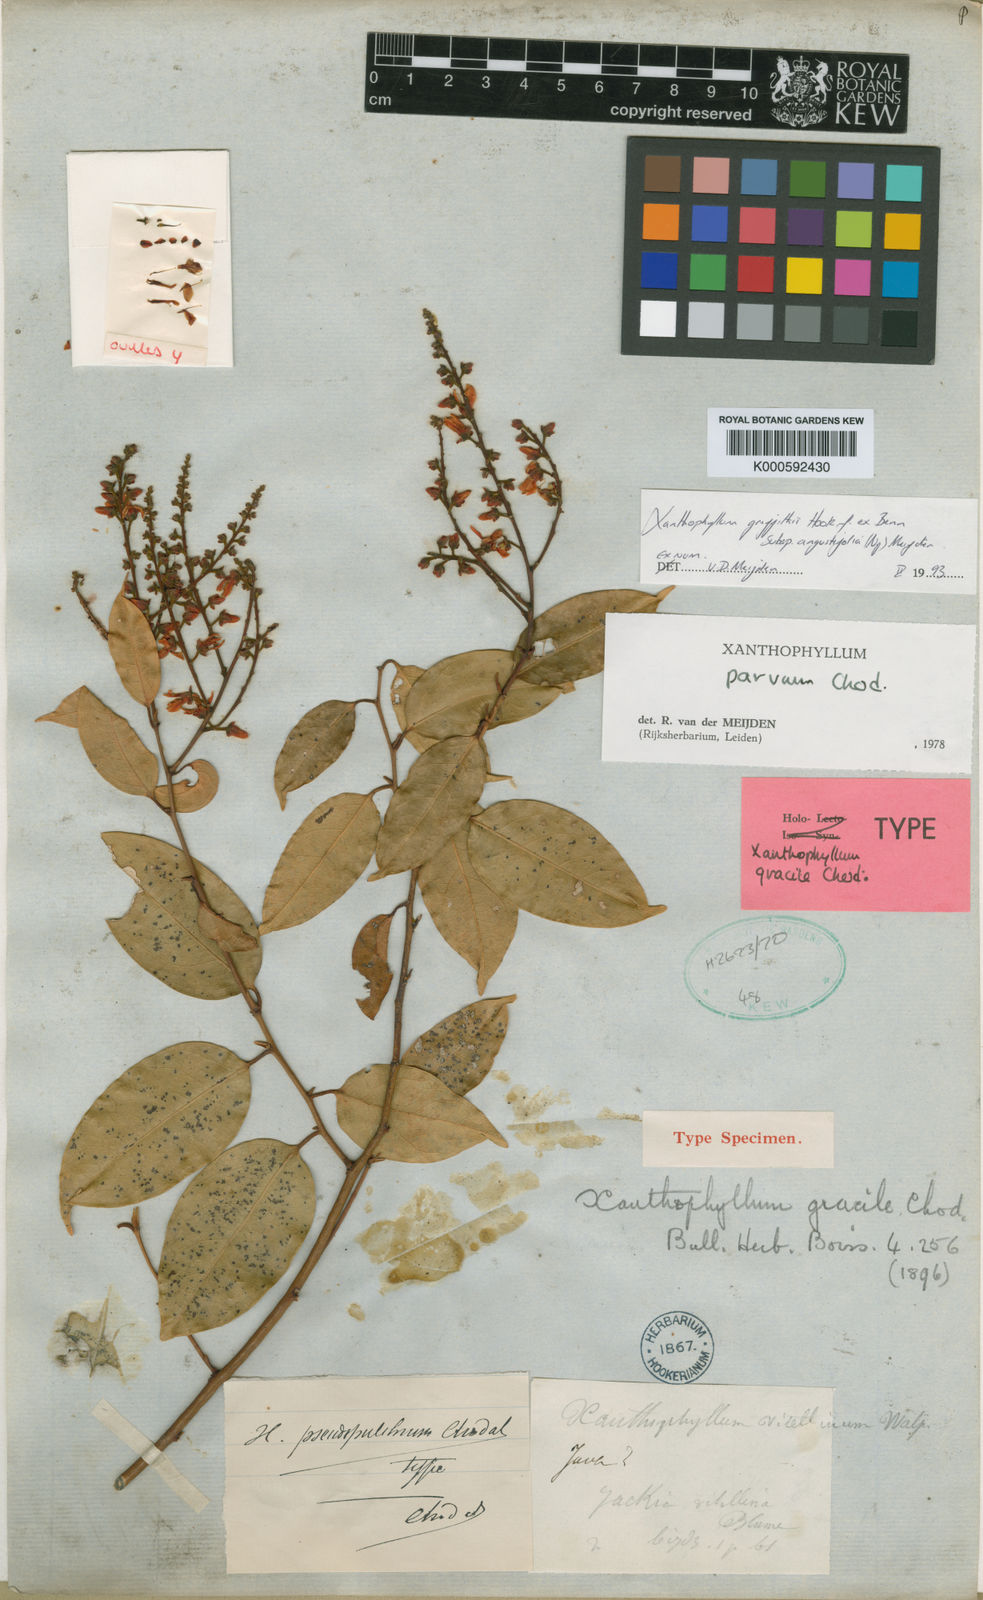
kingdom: Plantae
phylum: Tracheophyta
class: Magnoliopsida
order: Fabales
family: Polygalaceae
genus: Xanthophyllum
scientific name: Xanthophyllum griffithii
